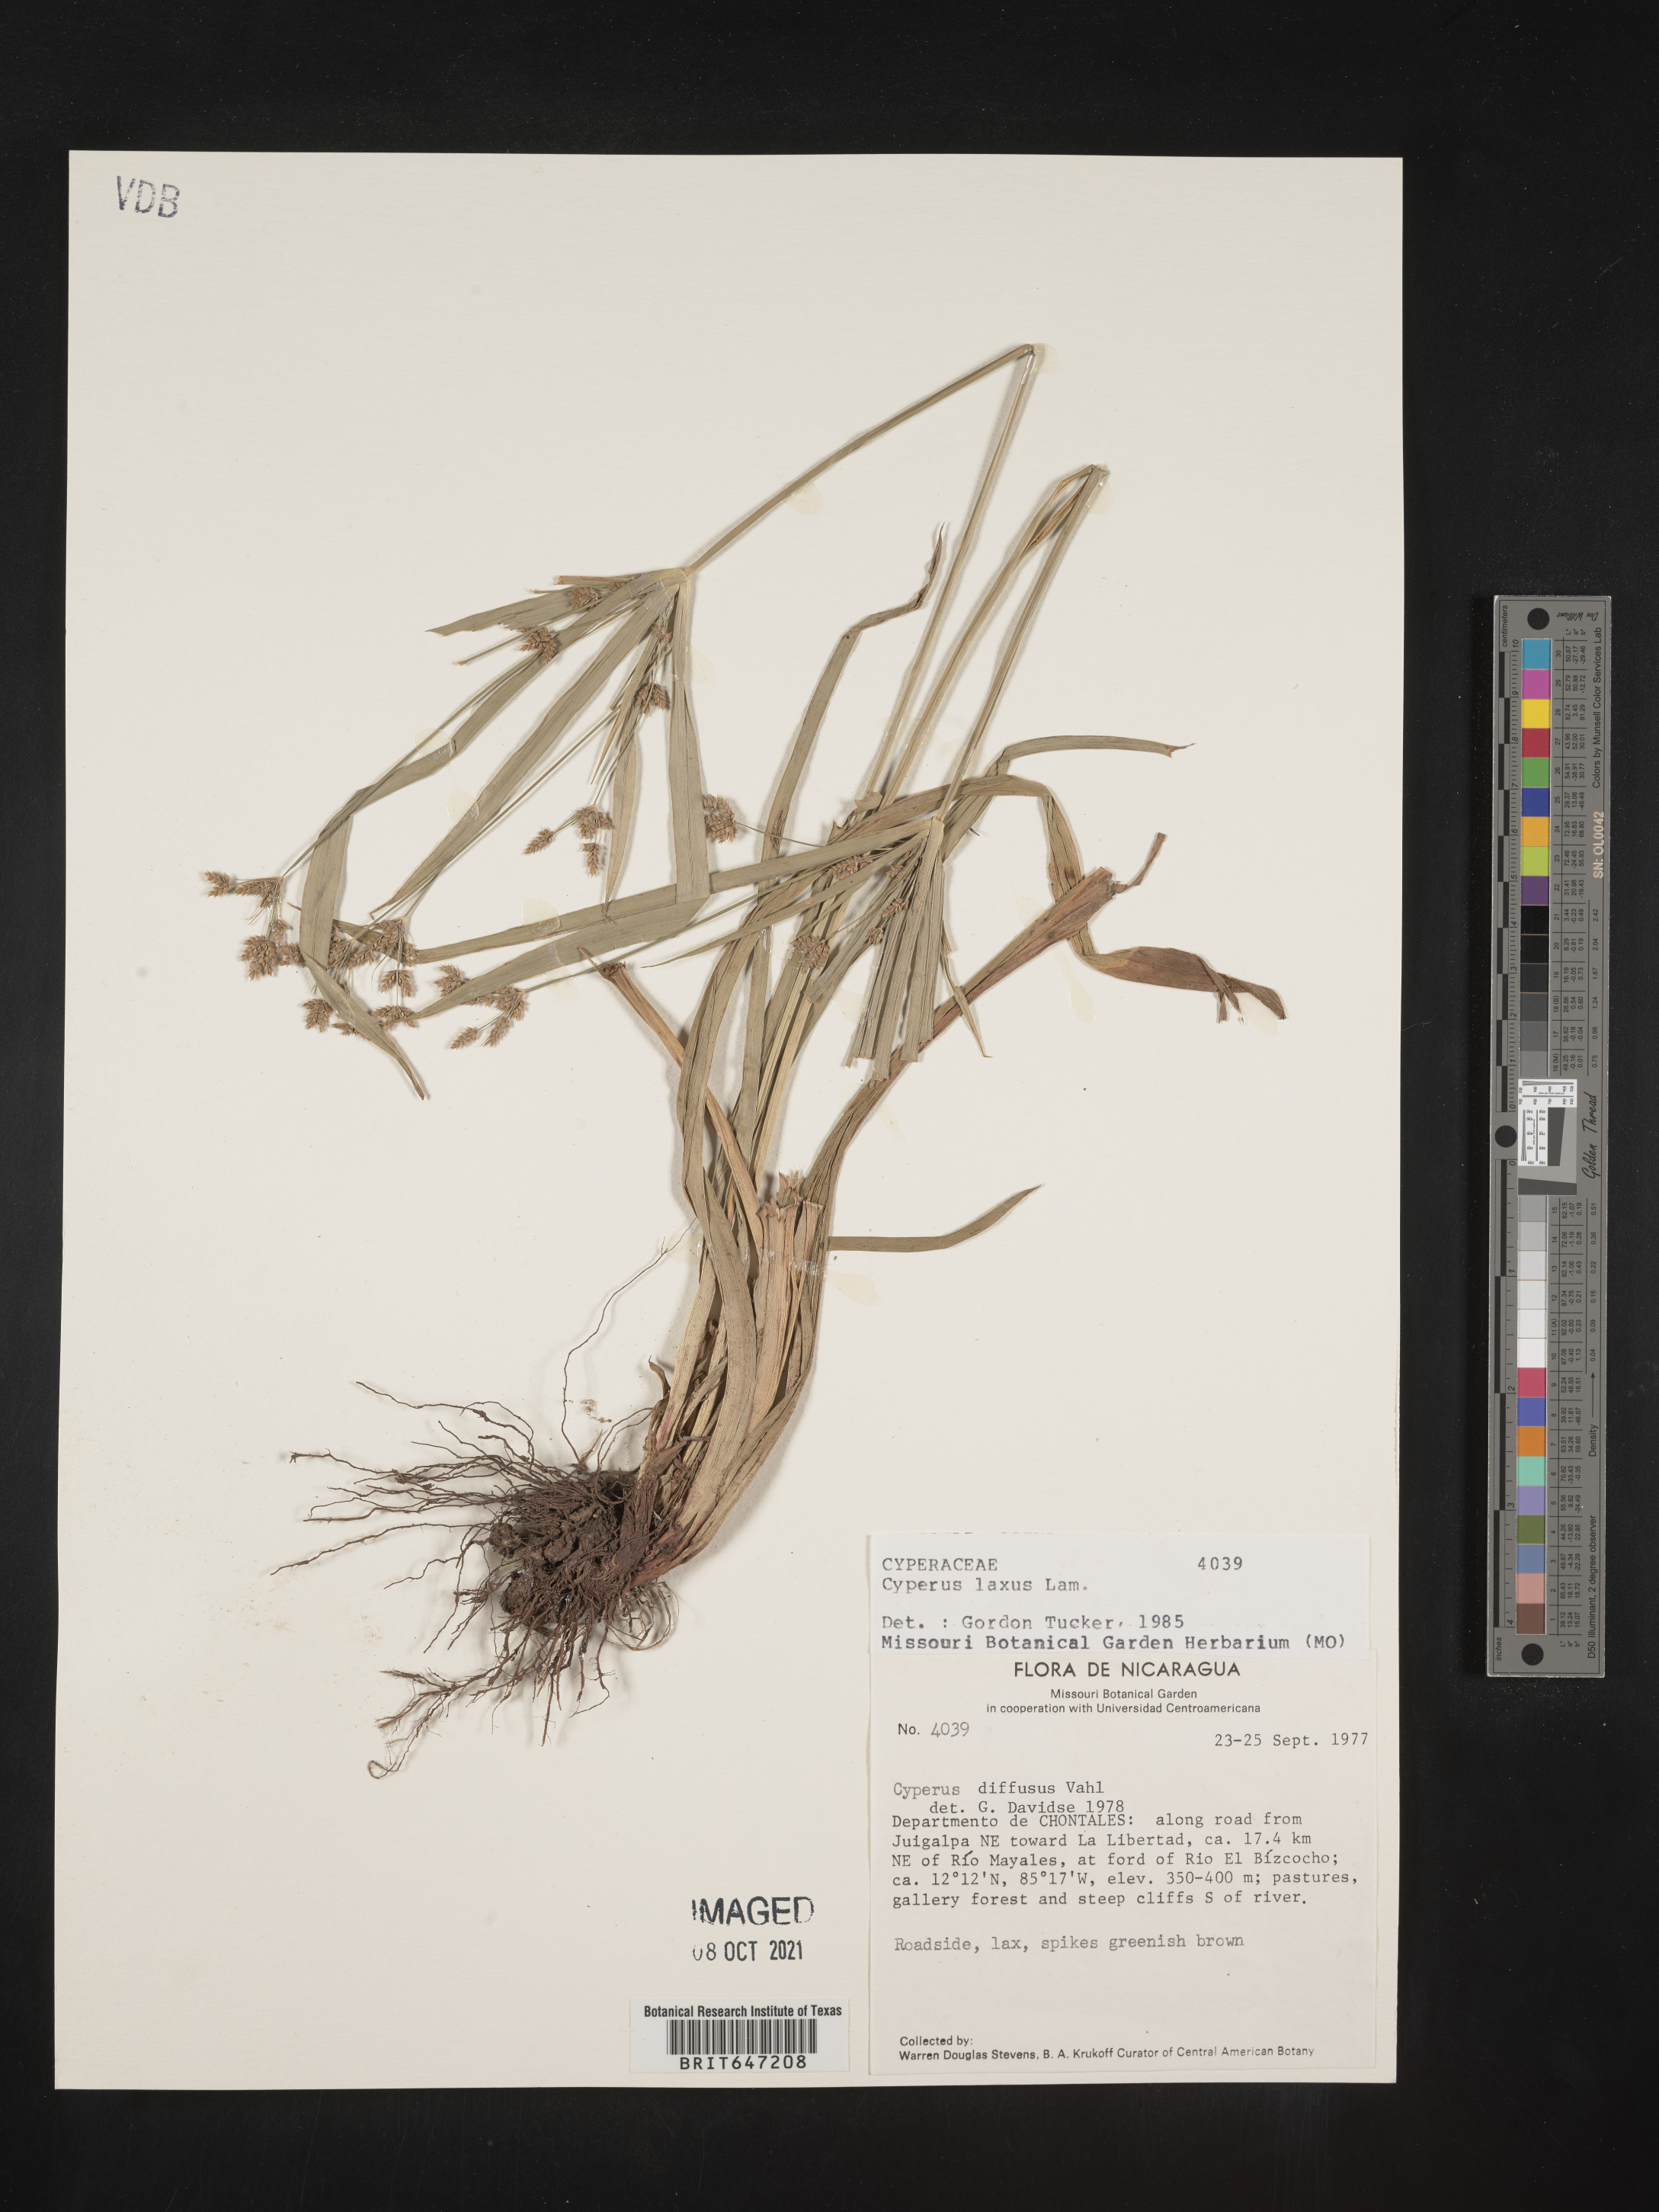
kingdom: Plantae
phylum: Tracheophyta
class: Liliopsida
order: Poales
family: Cyperaceae
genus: Cyperus
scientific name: Cyperus laxus
